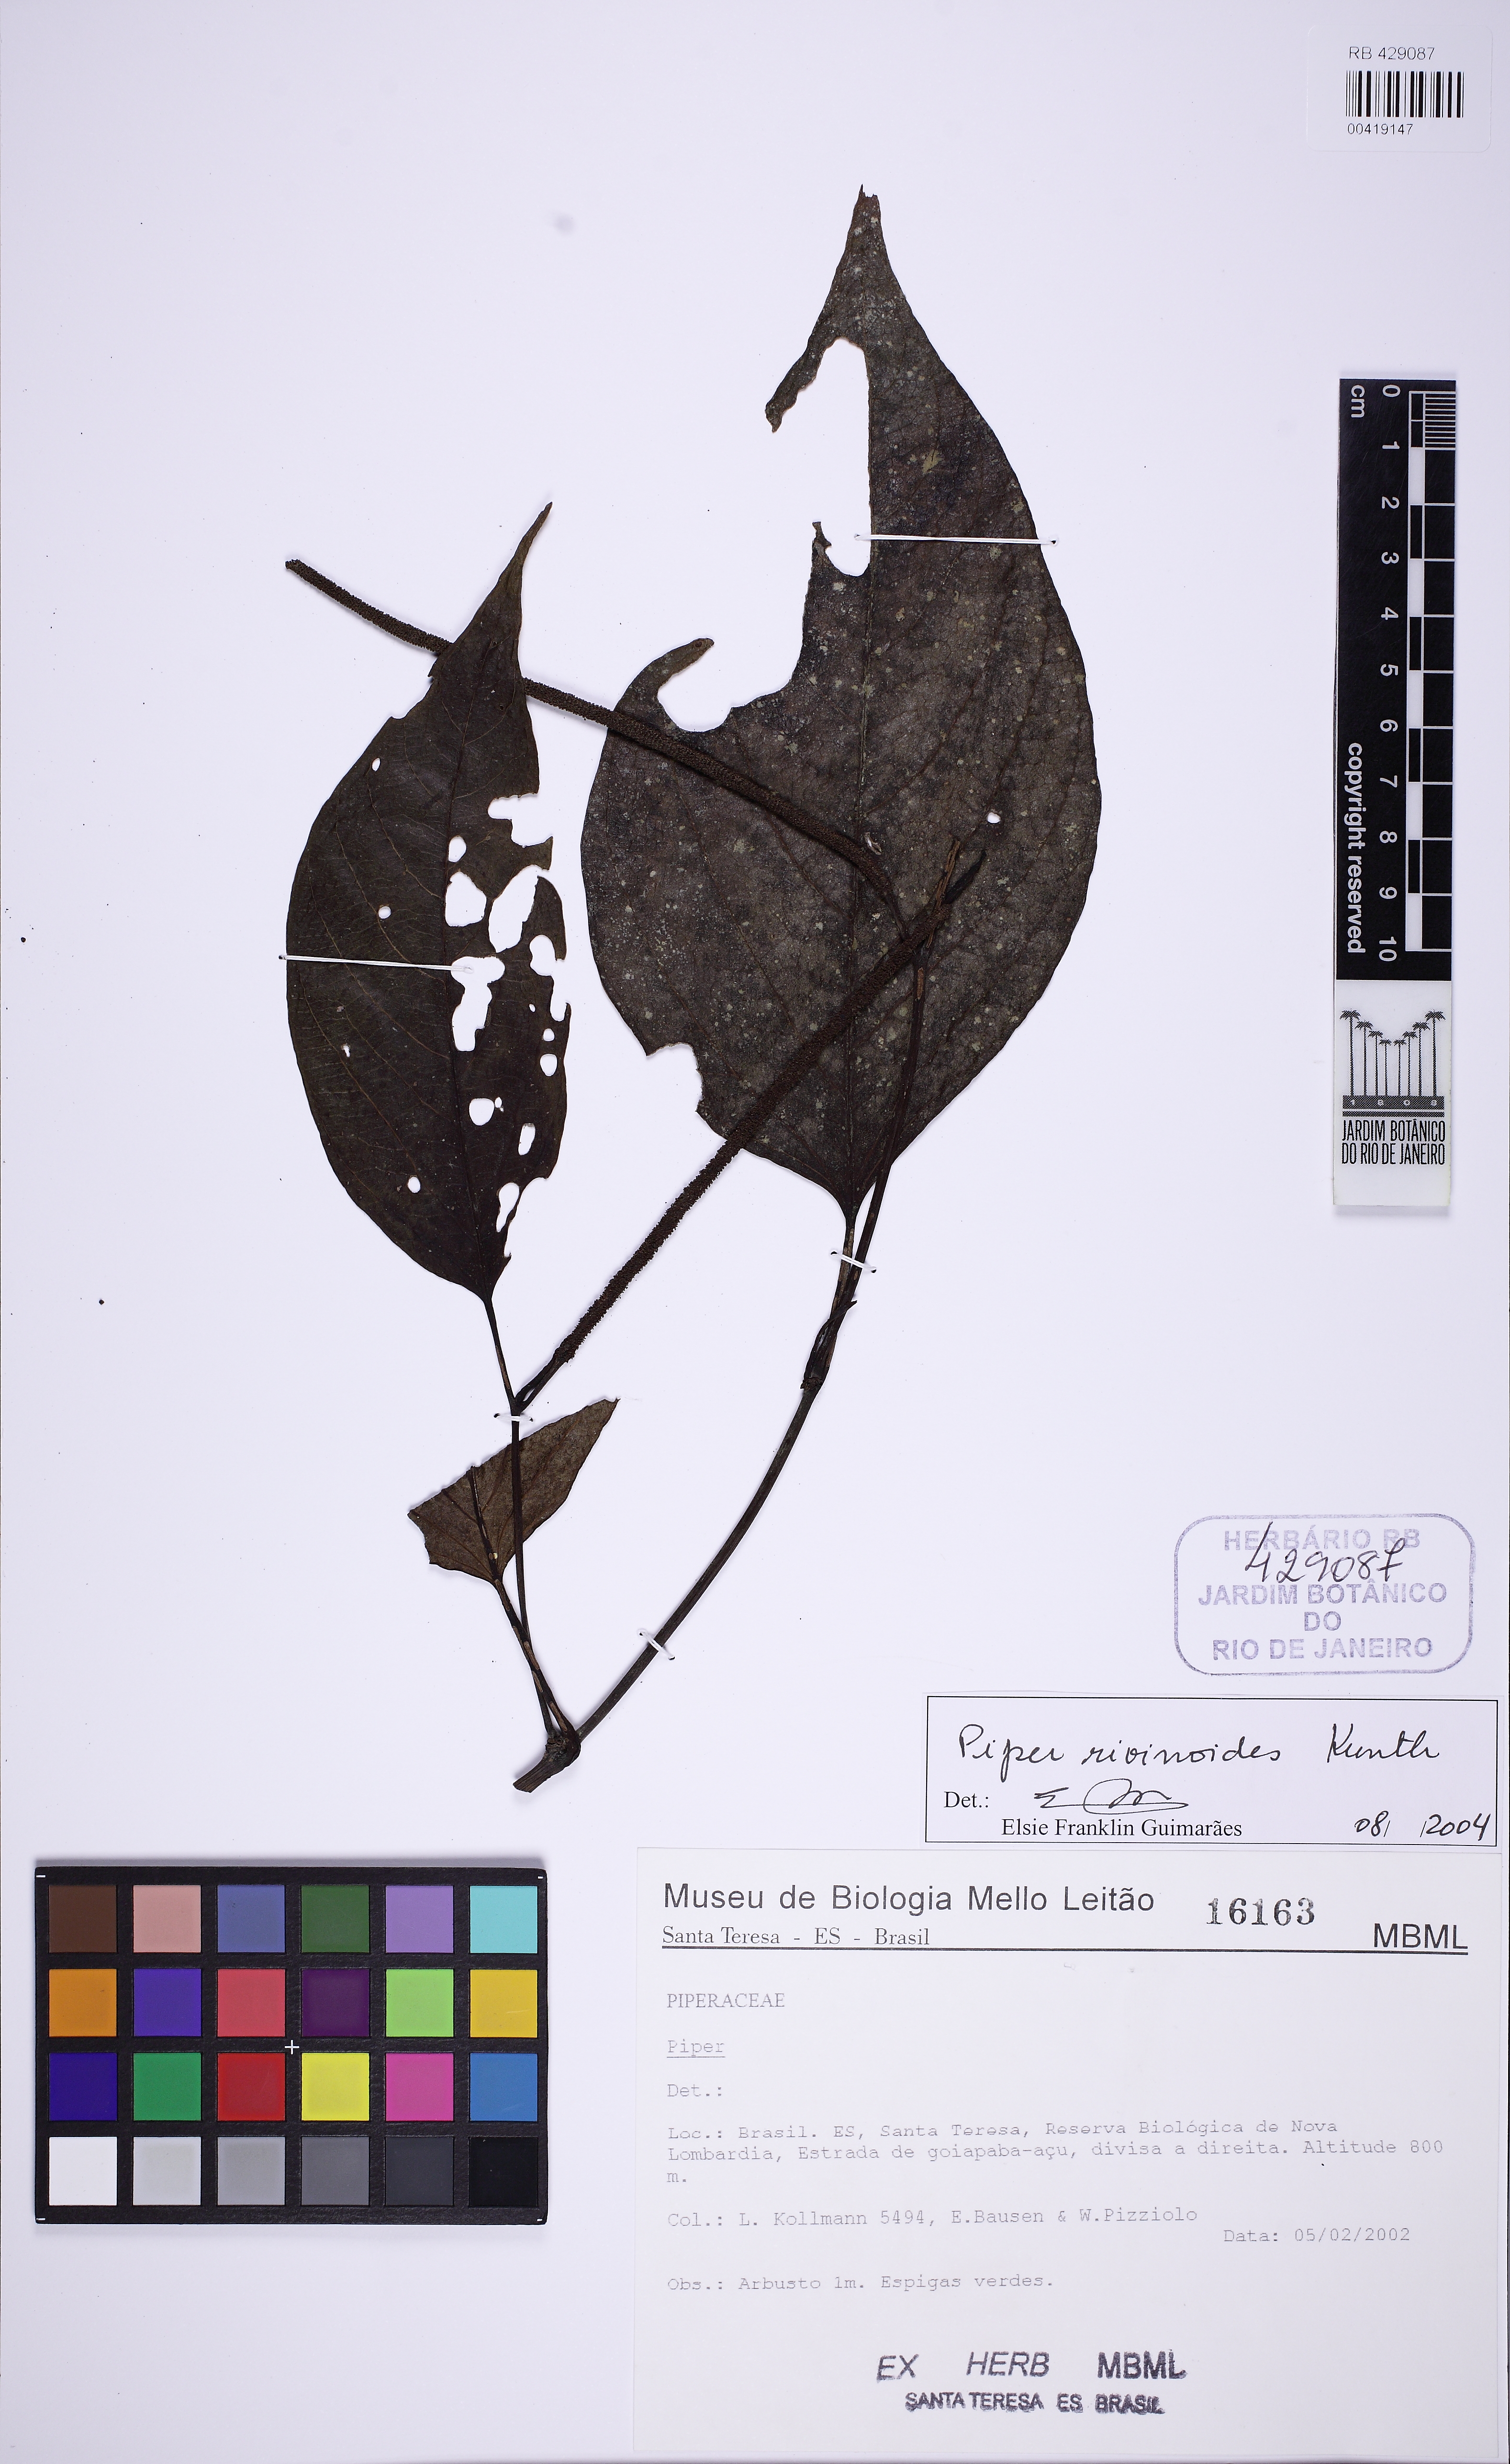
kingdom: Plantae
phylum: Tracheophyta
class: Magnoliopsida
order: Piperales
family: Piperaceae
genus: Piper
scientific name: Piper rivinoides
